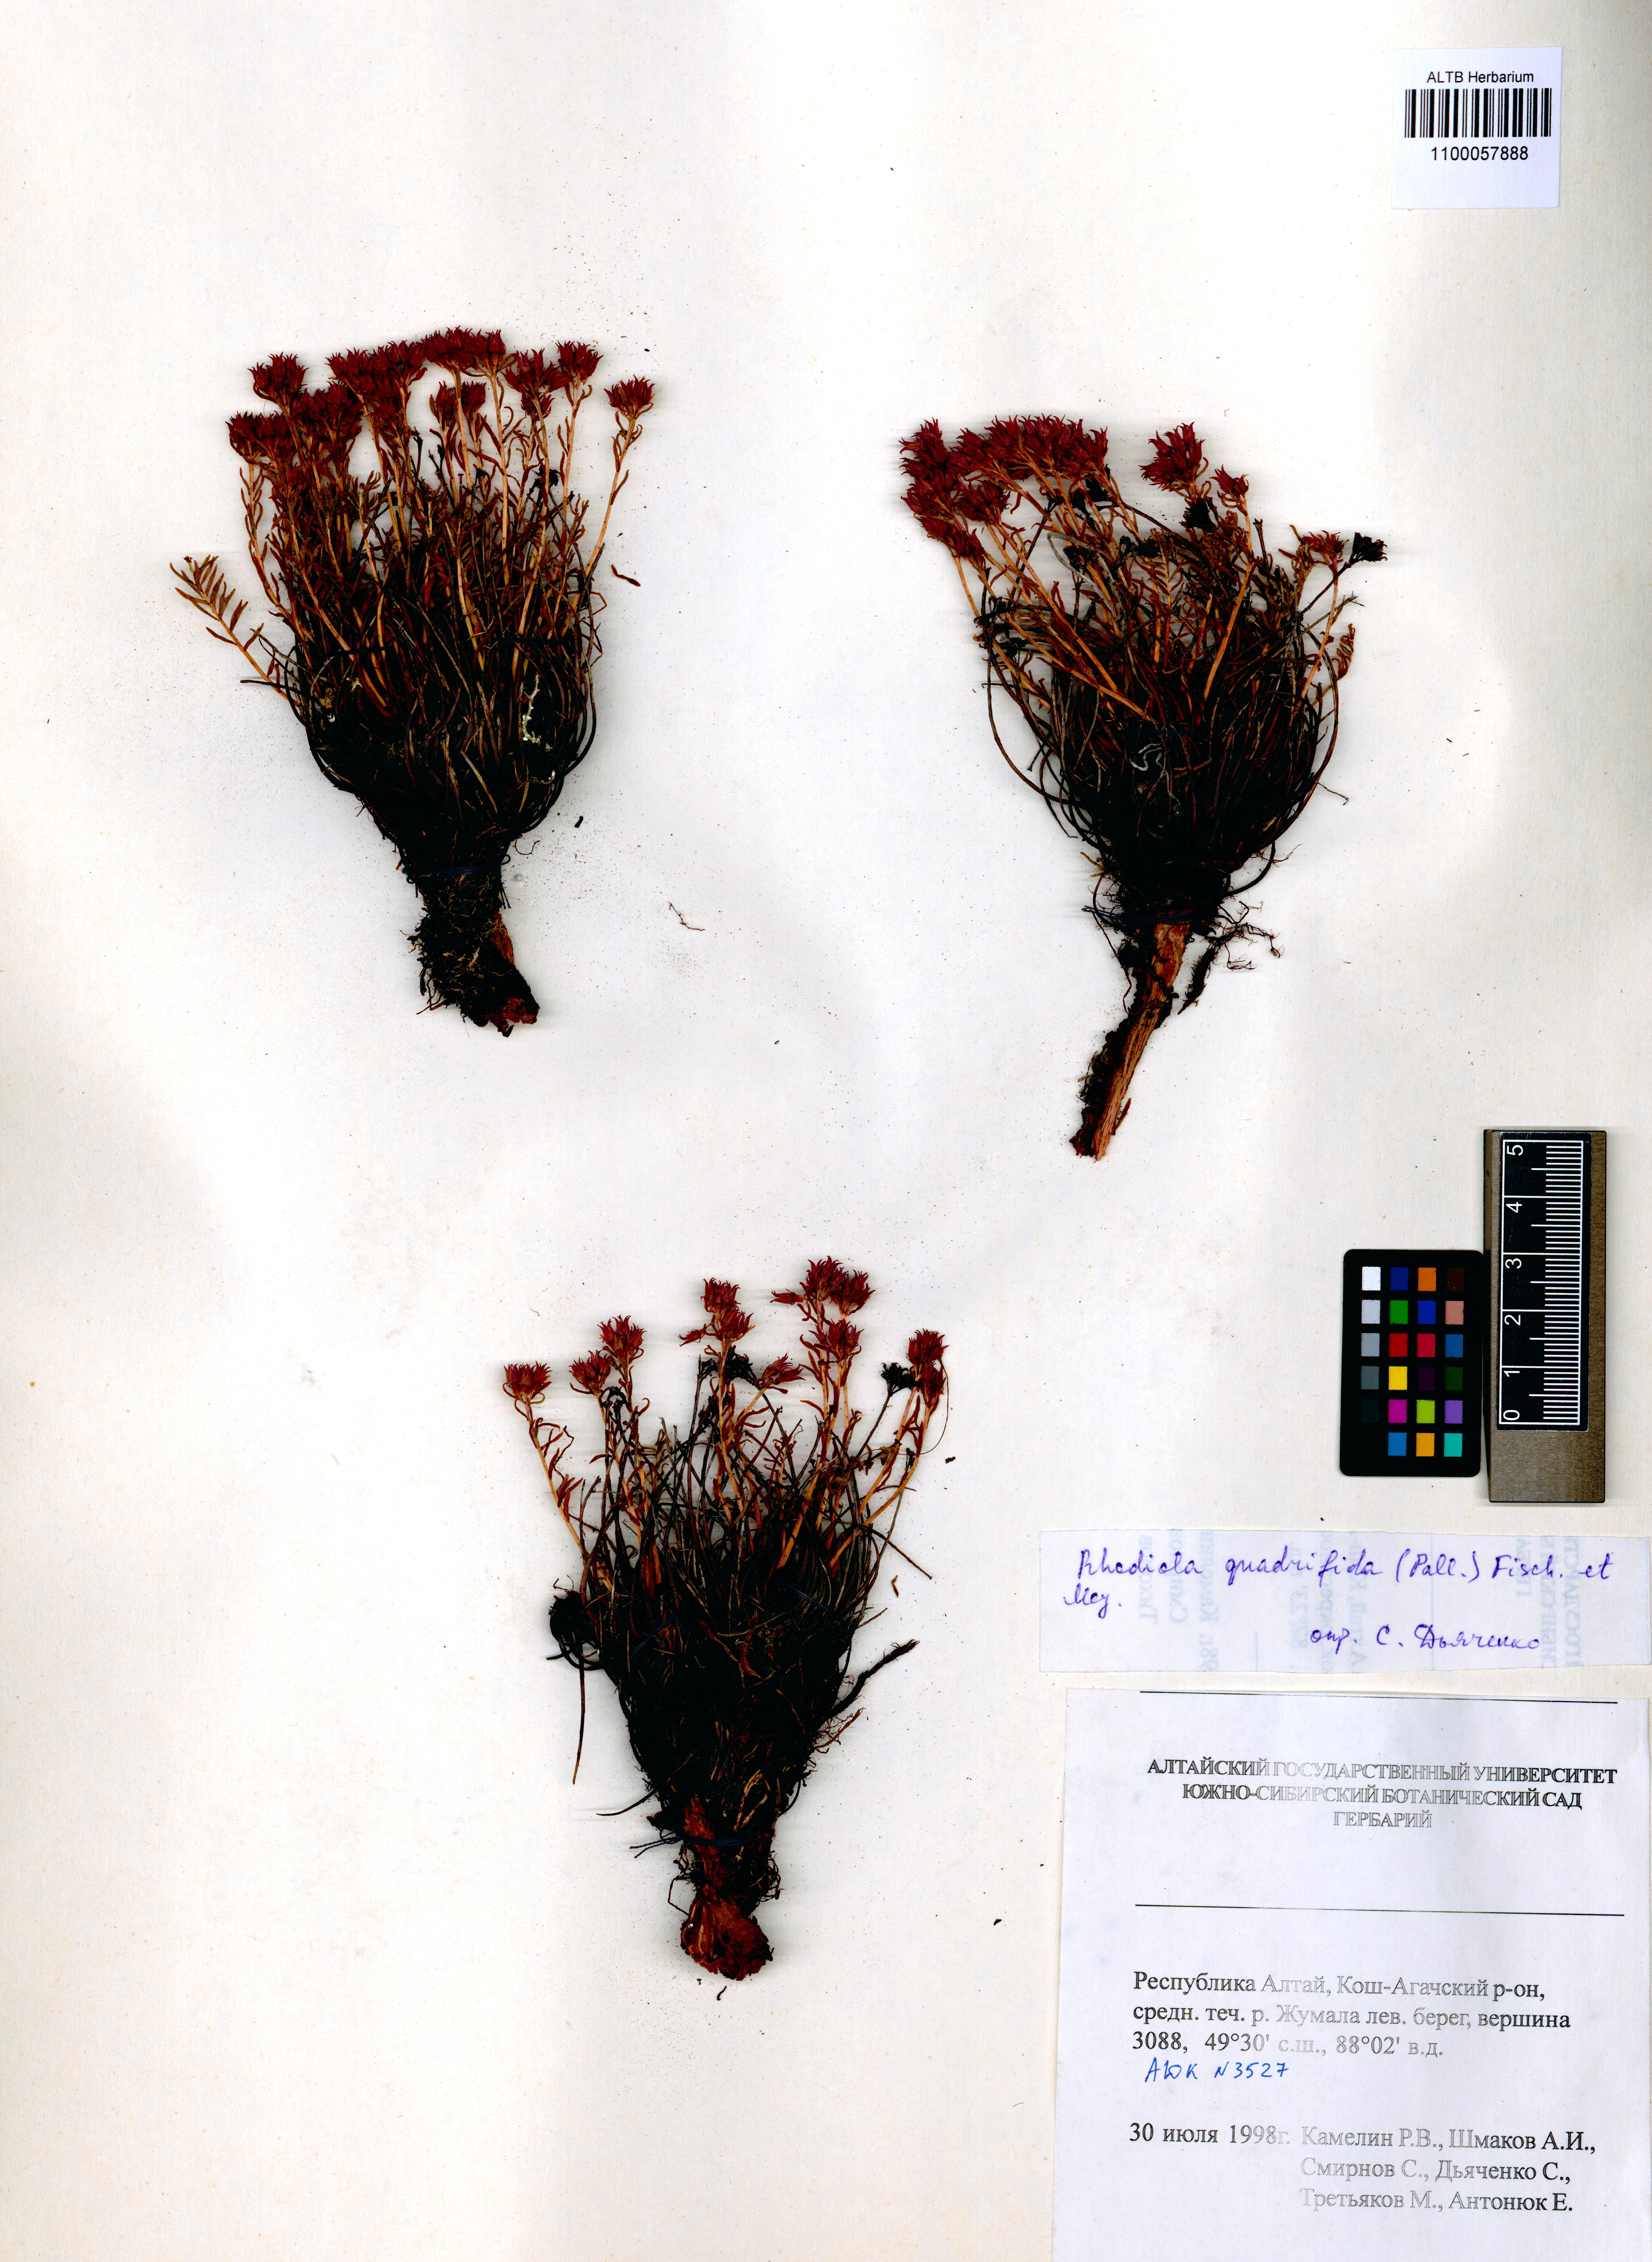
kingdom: Plantae
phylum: Tracheophyta
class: Magnoliopsida
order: Saxifragales
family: Crassulaceae
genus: Rhodiola
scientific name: Rhodiola quadrifida
